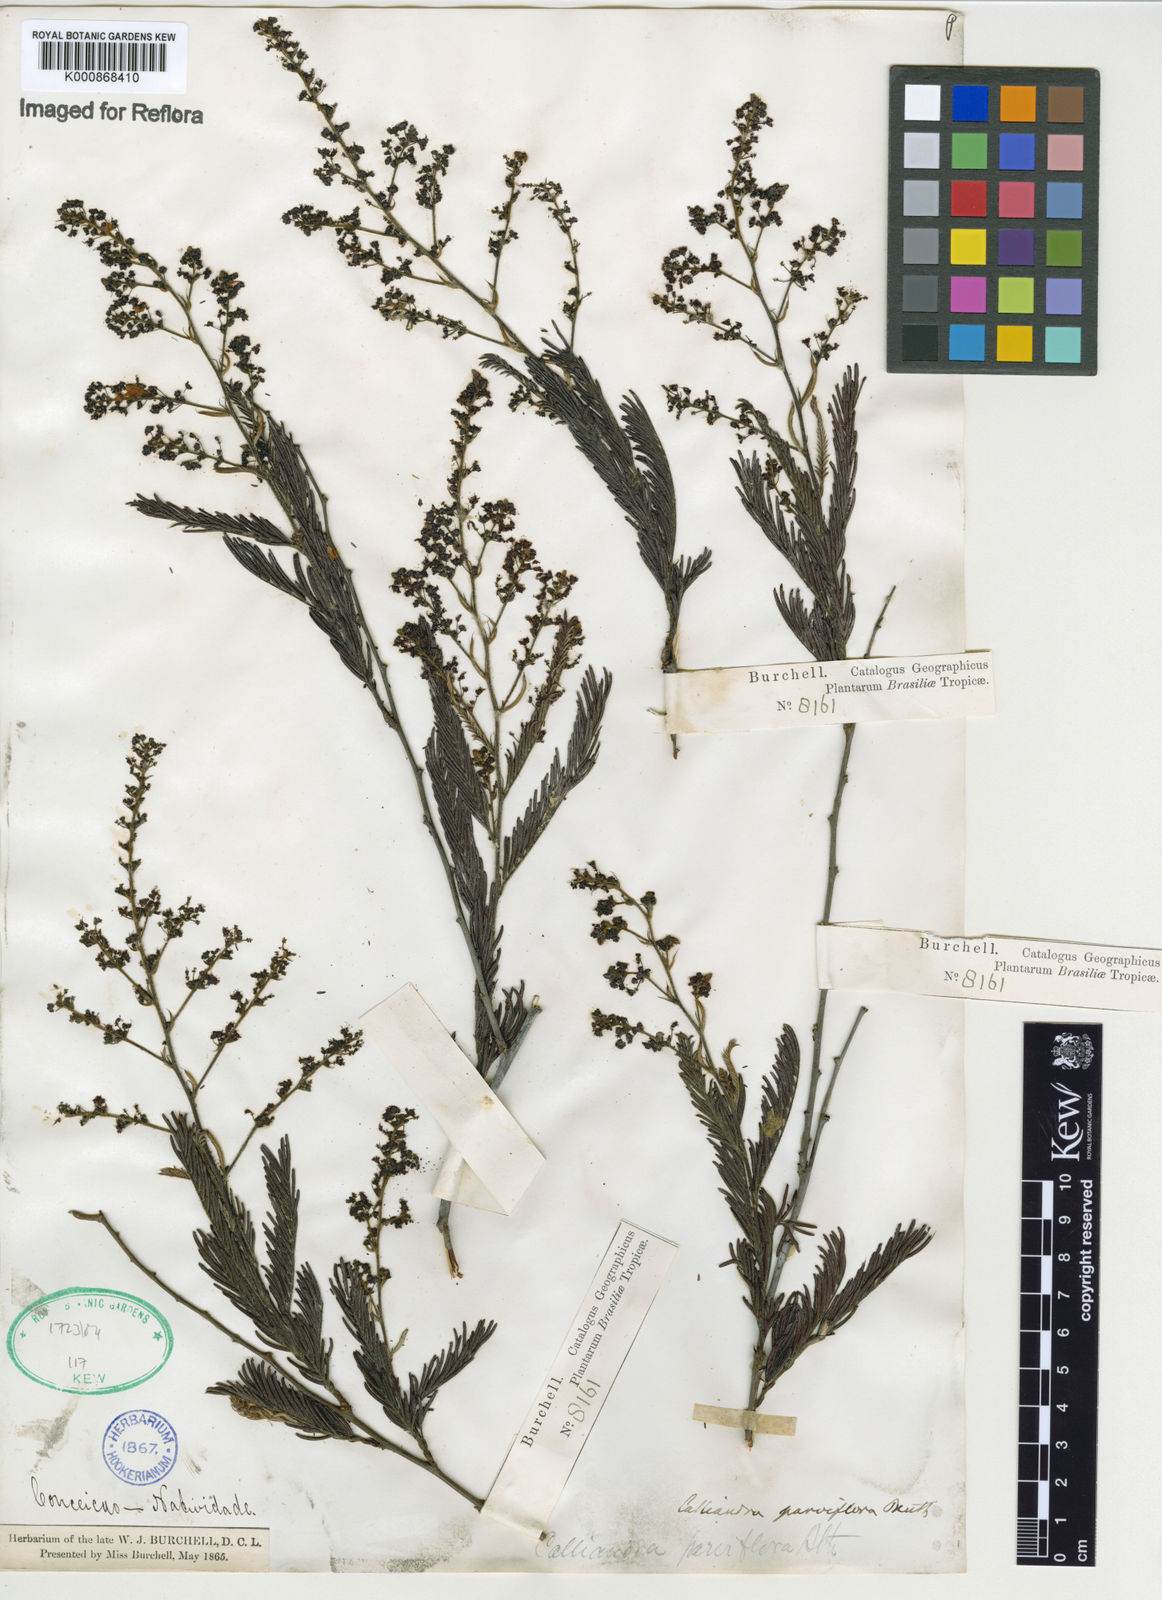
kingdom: Plantae
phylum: Tracheophyta
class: Magnoliopsida
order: Fabales
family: Fabaceae
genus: Calliandra
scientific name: Calliandra parviflora
